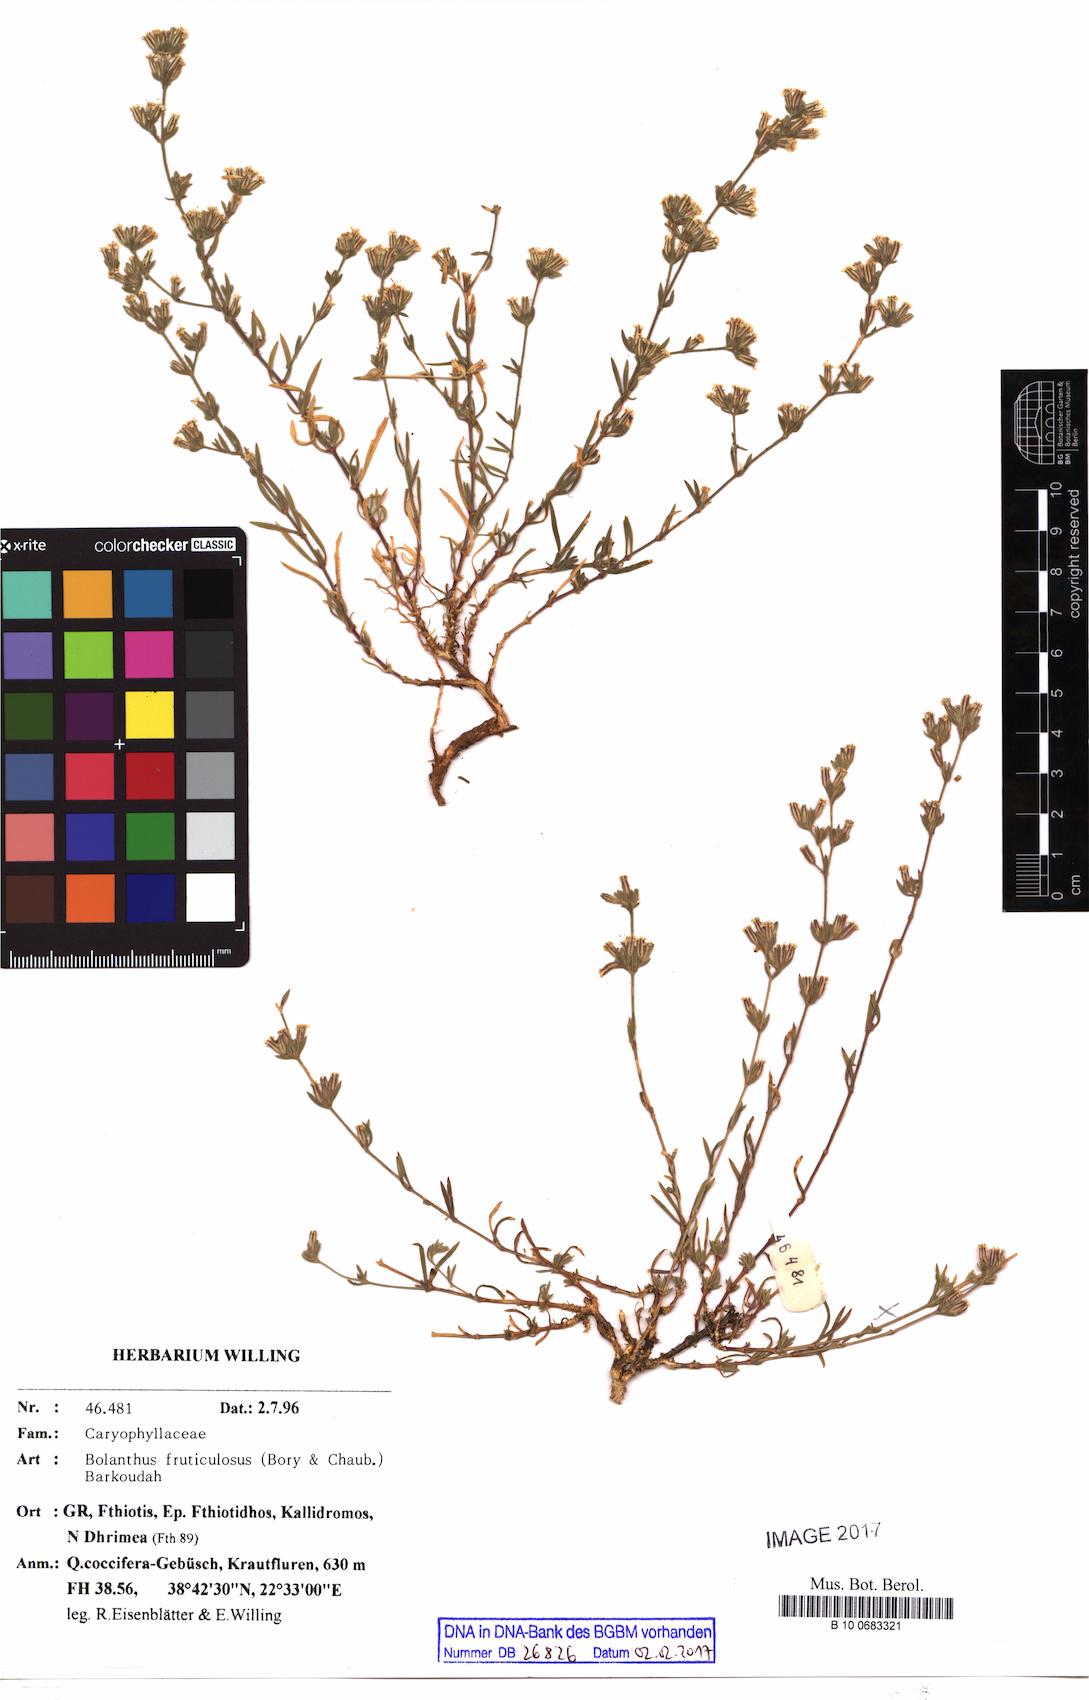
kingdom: Plantae
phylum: Tracheophyta
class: Magnoliopsida
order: Caryophyllales
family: Caryophyllaceae
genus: Graecobolanthus
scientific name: Graecobolanthus fruticulosus
